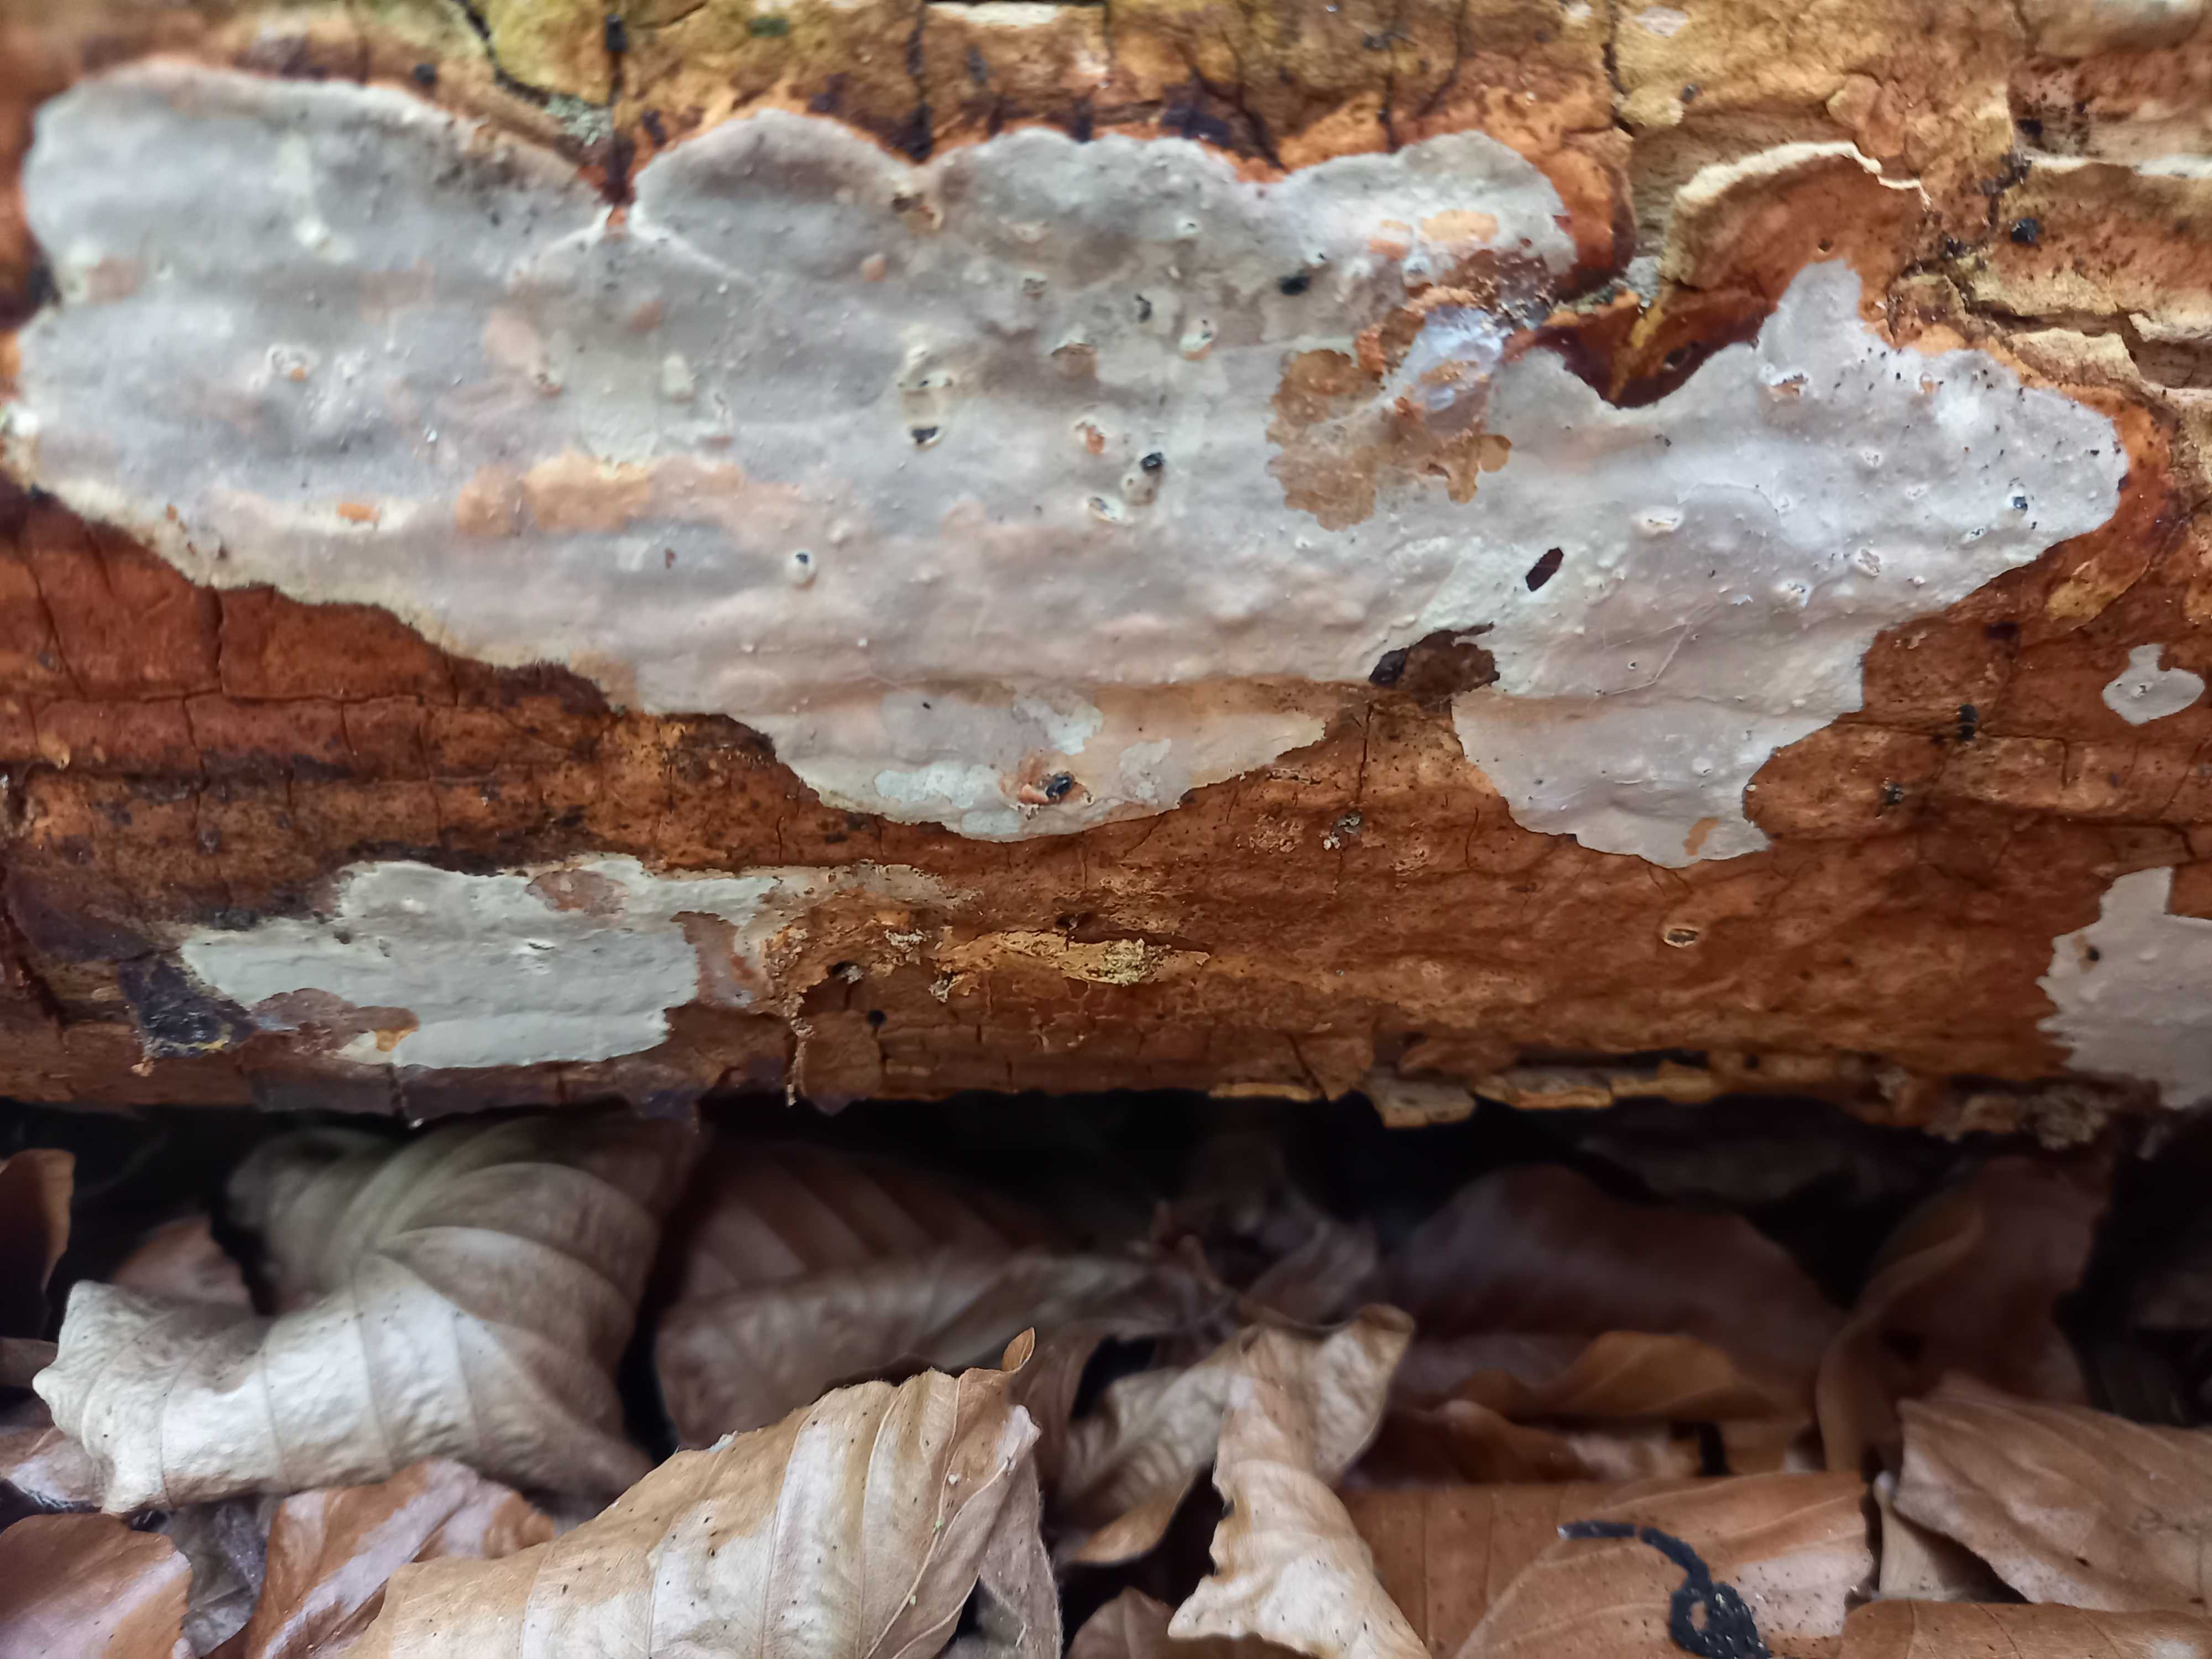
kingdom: Fungi
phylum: Basidiomycota
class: Agaricomycetes
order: Russulales
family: Peniophoraceae
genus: Scytinostroma
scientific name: Scytinostroma hemidichophyticum
